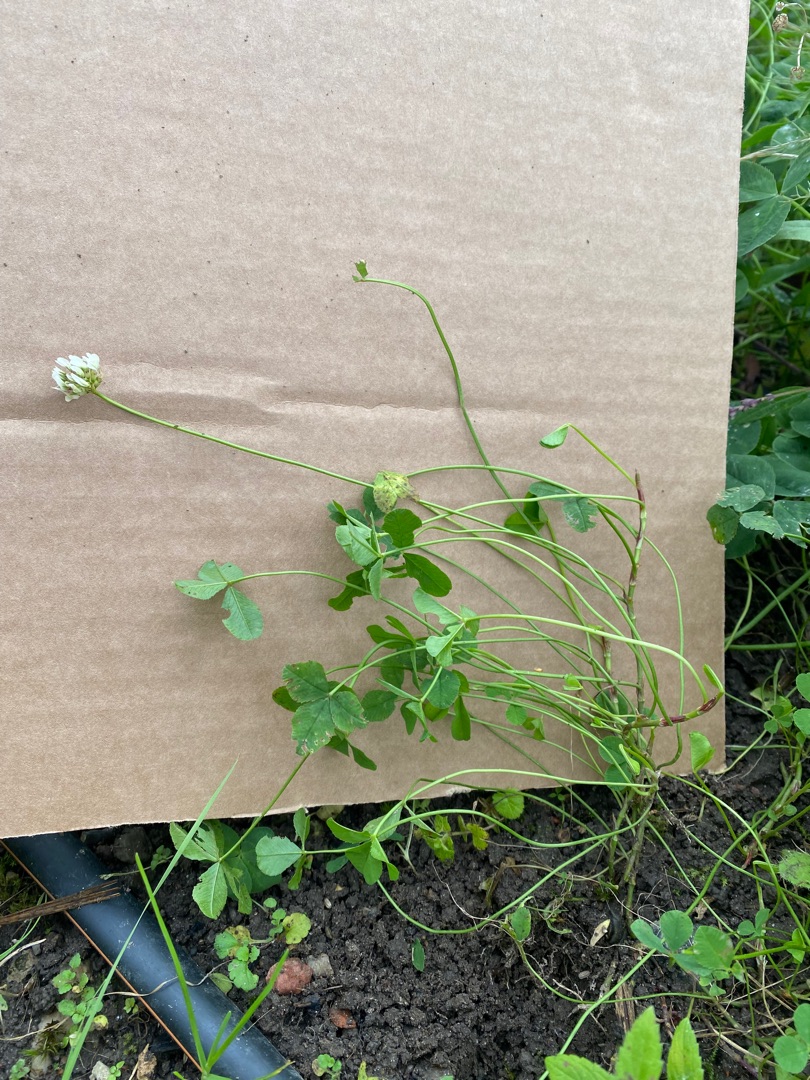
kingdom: Plantae
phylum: Tracheophyta
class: Magnoliopsida
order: Fabales
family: Fabaceae
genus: Trifolium
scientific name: Trifolium repens
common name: Hvid-kløver
